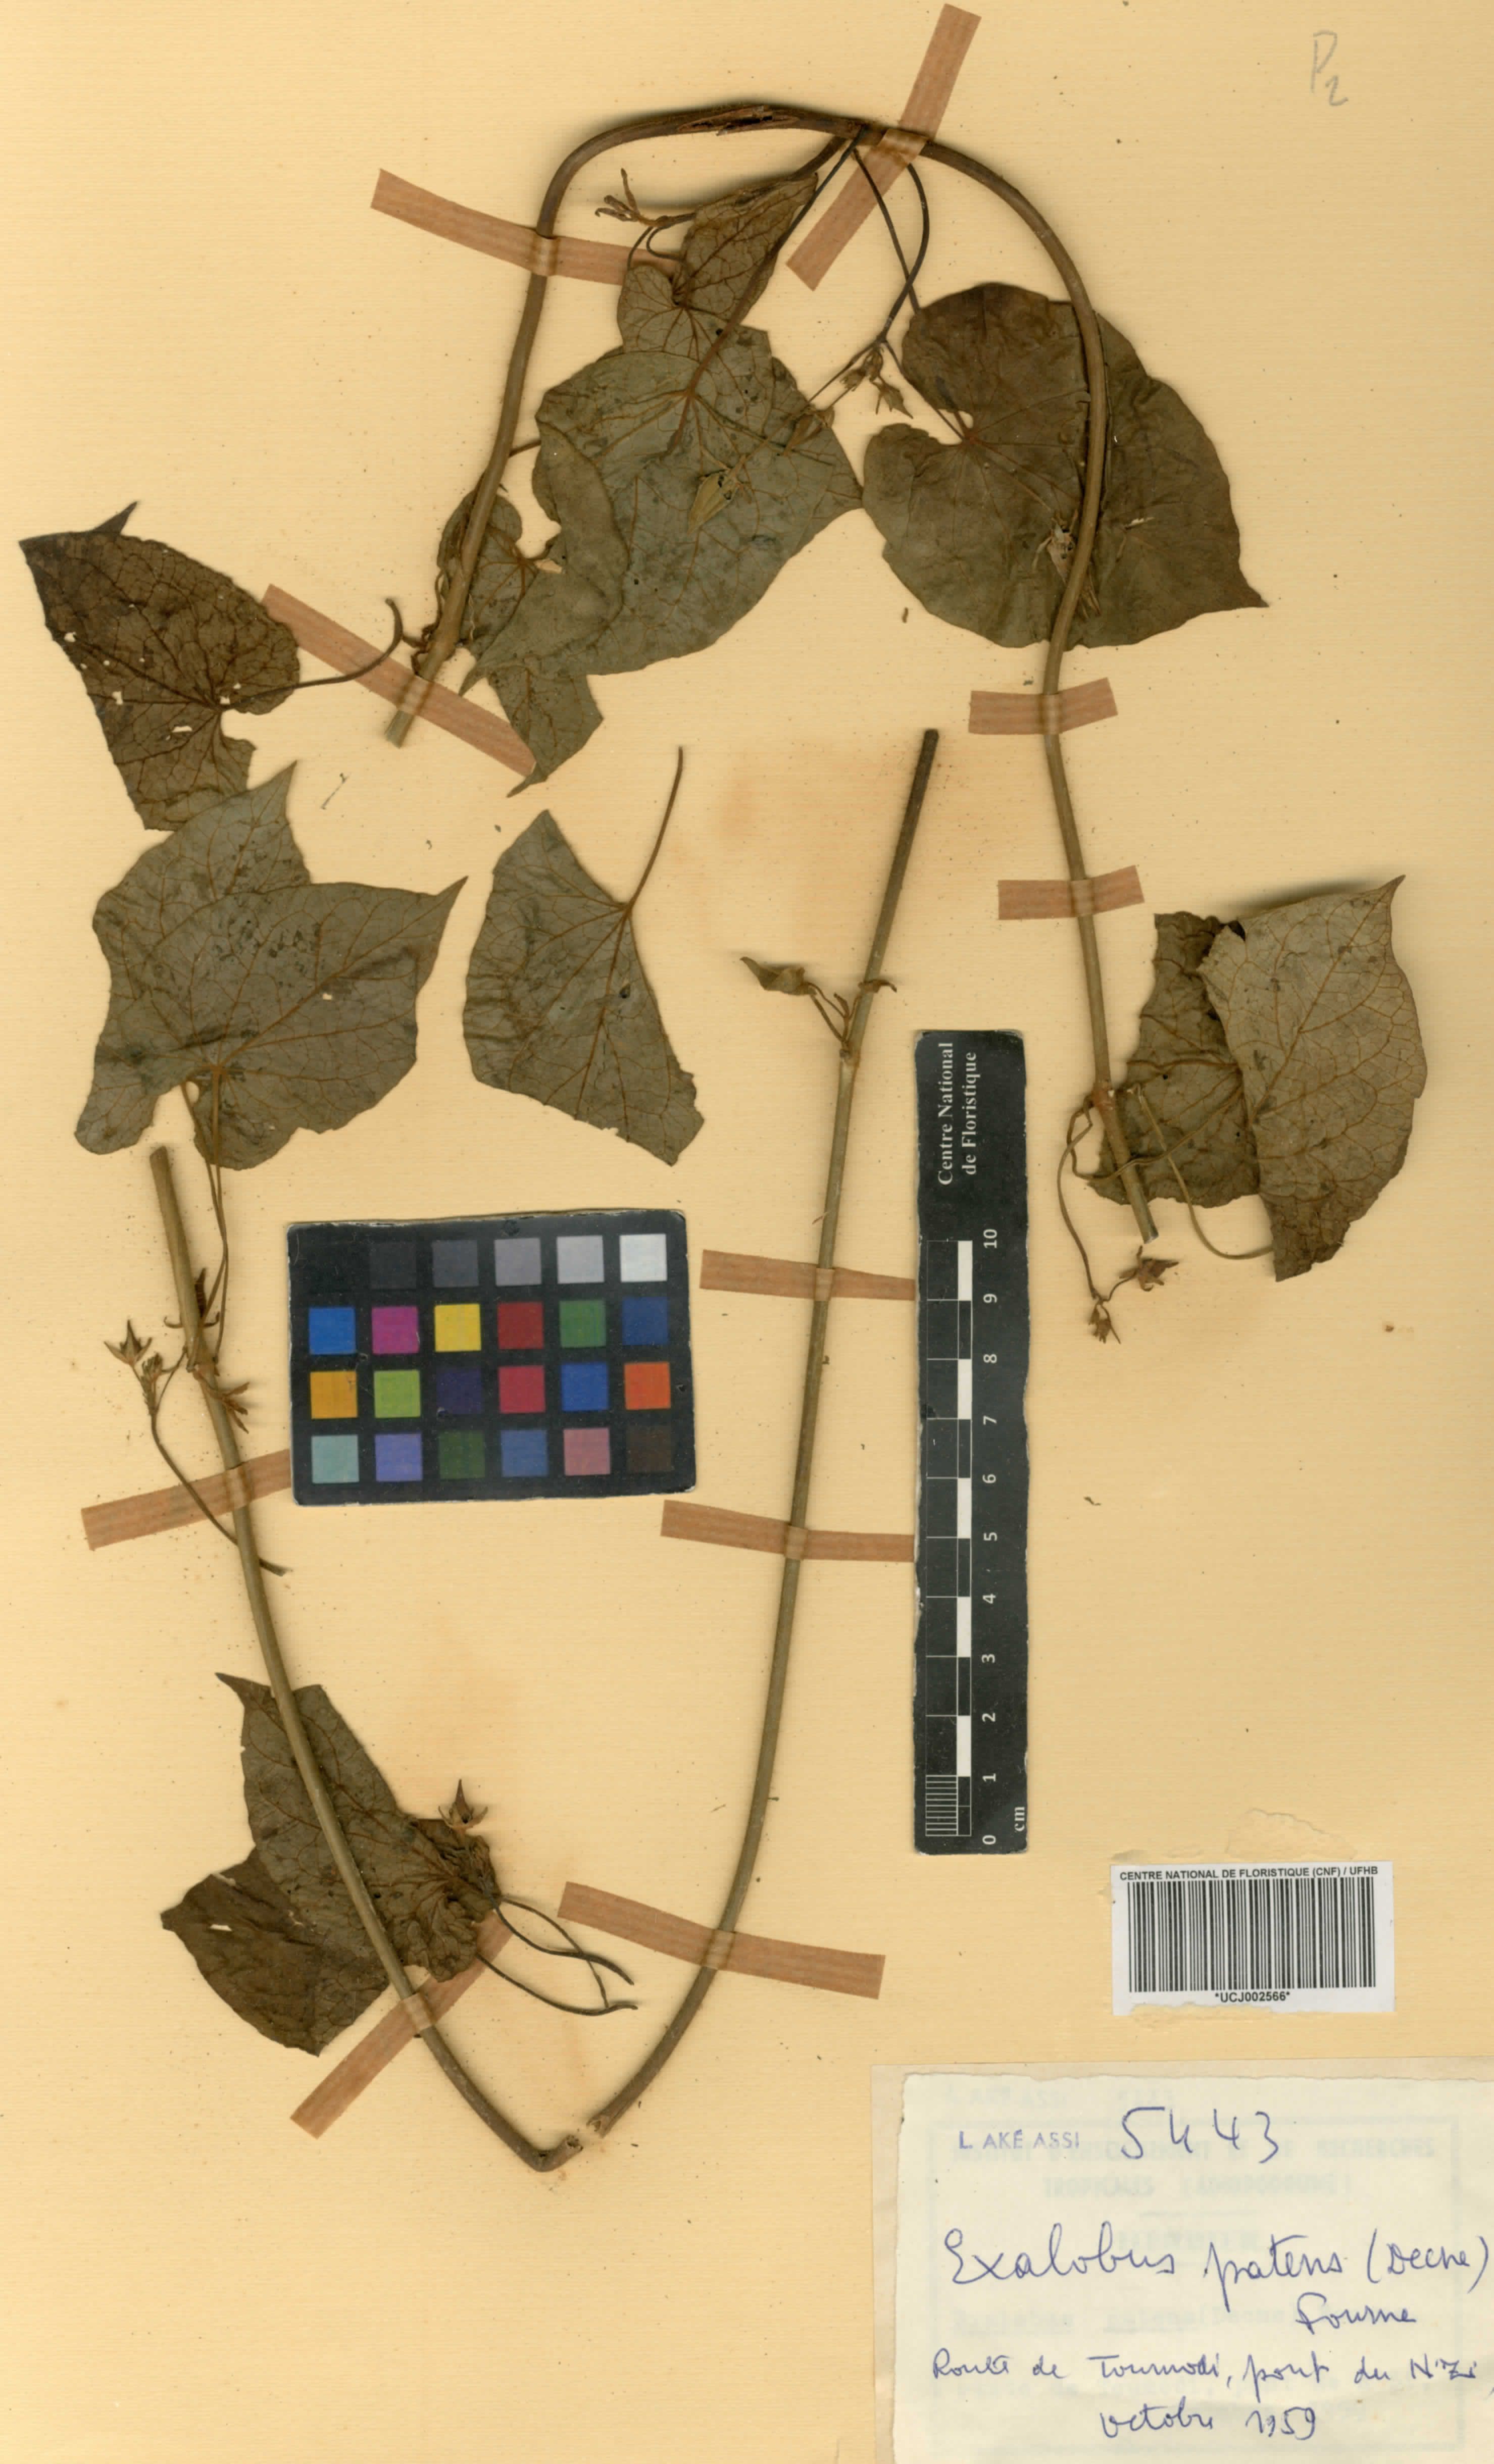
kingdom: Plantae
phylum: Tracheophyta
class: Magnoliopsida
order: Gentianales
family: Apocynaceae
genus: Gonolobus
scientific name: Gonolobus rostratus
